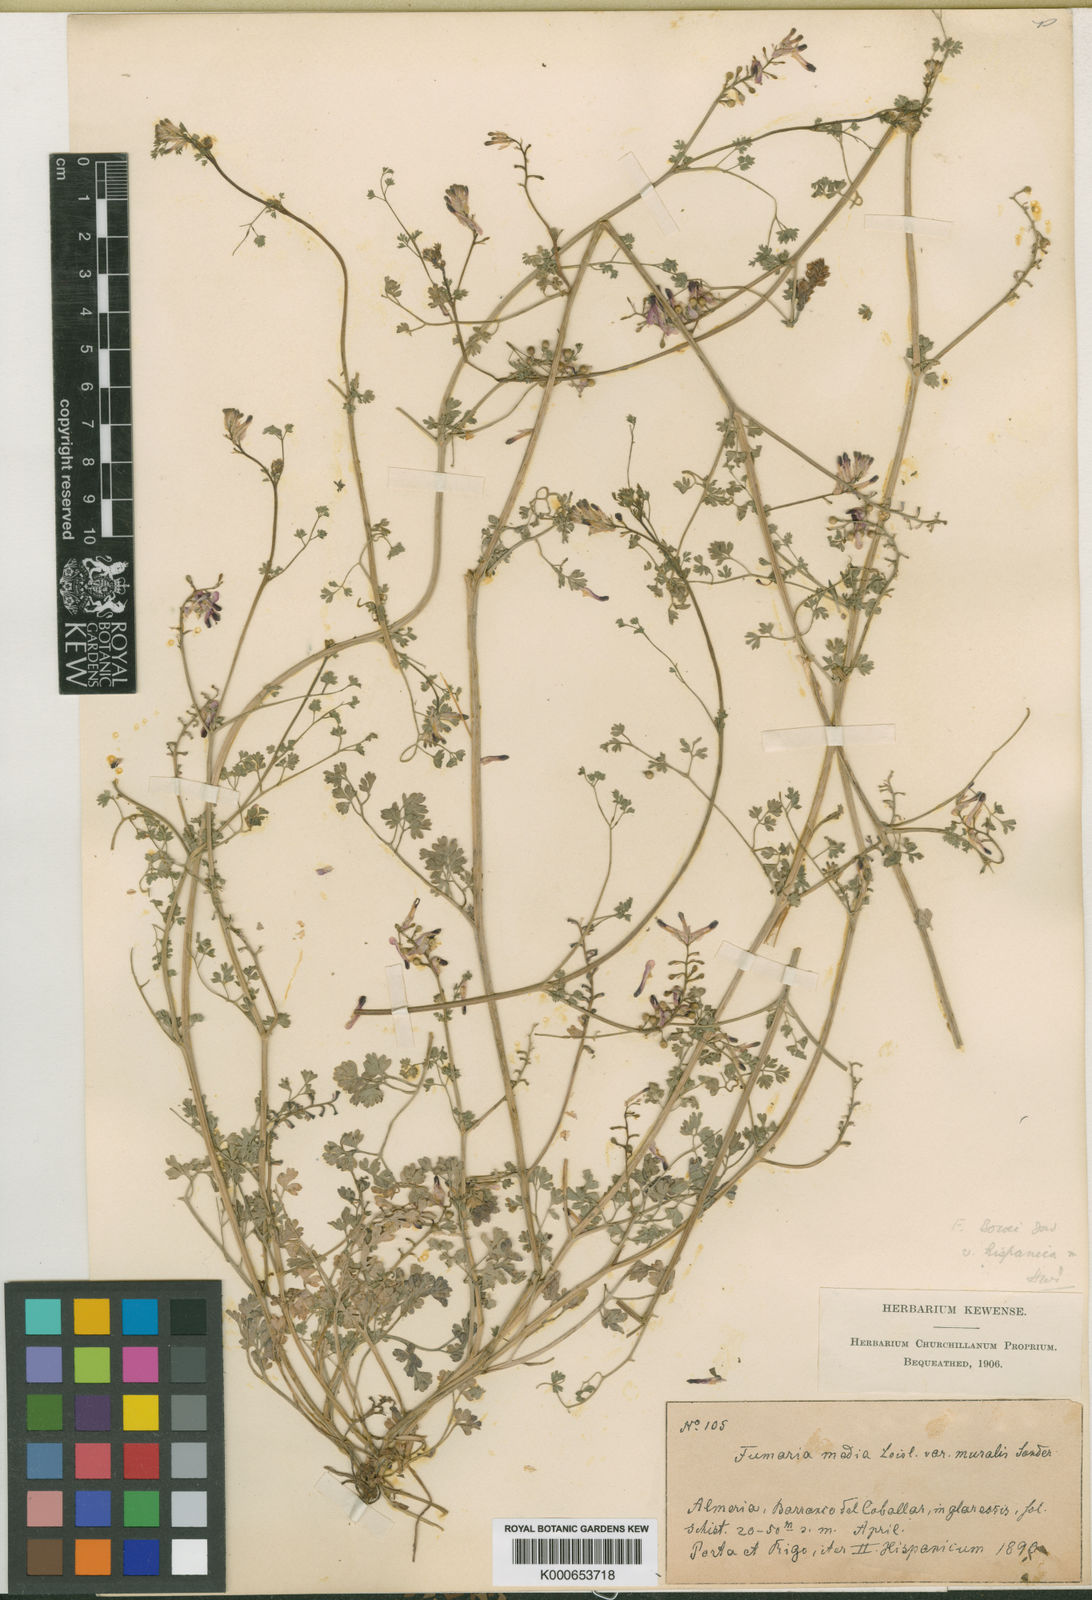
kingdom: Plantae
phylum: Tracheophyta
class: Magnoliopsida
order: Ranunculales
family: Papaveraceae
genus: Fumaria
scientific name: Fumaria muralis
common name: Common ramping-fumitory
